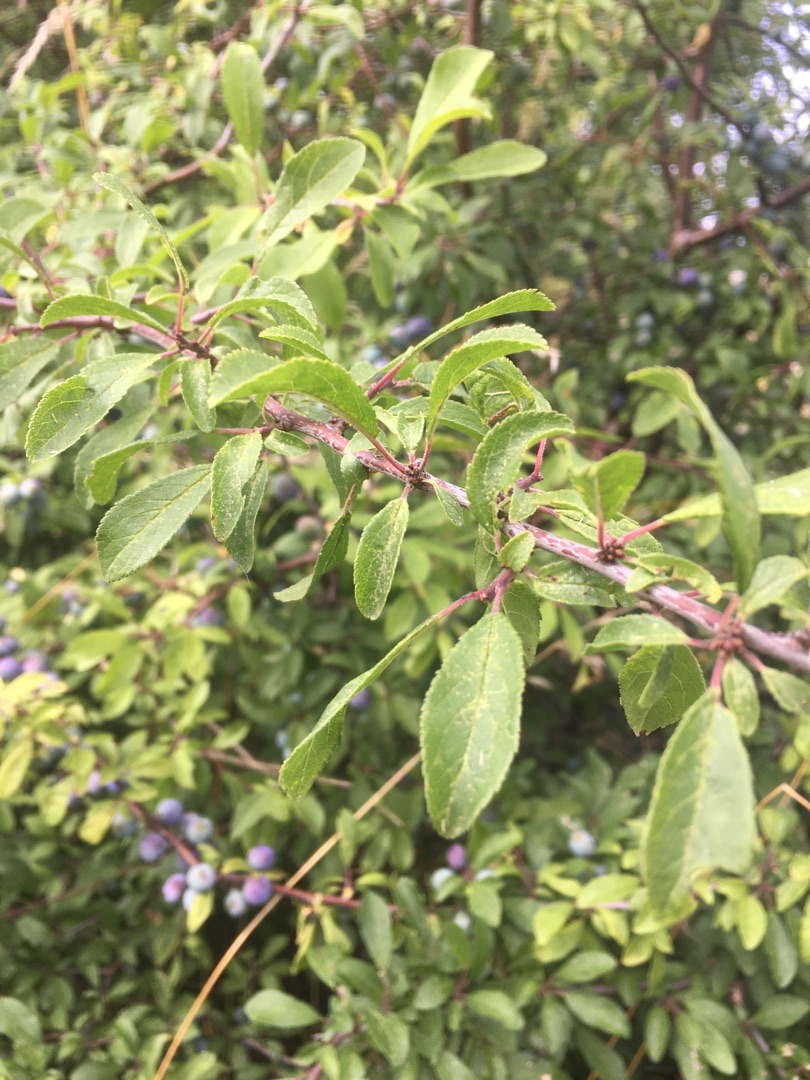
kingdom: Plantae
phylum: Tracheophyta
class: Magnoliopsida
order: Rosales
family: Rosaceae
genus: Prunus
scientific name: Prunus domestica
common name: Kræge
